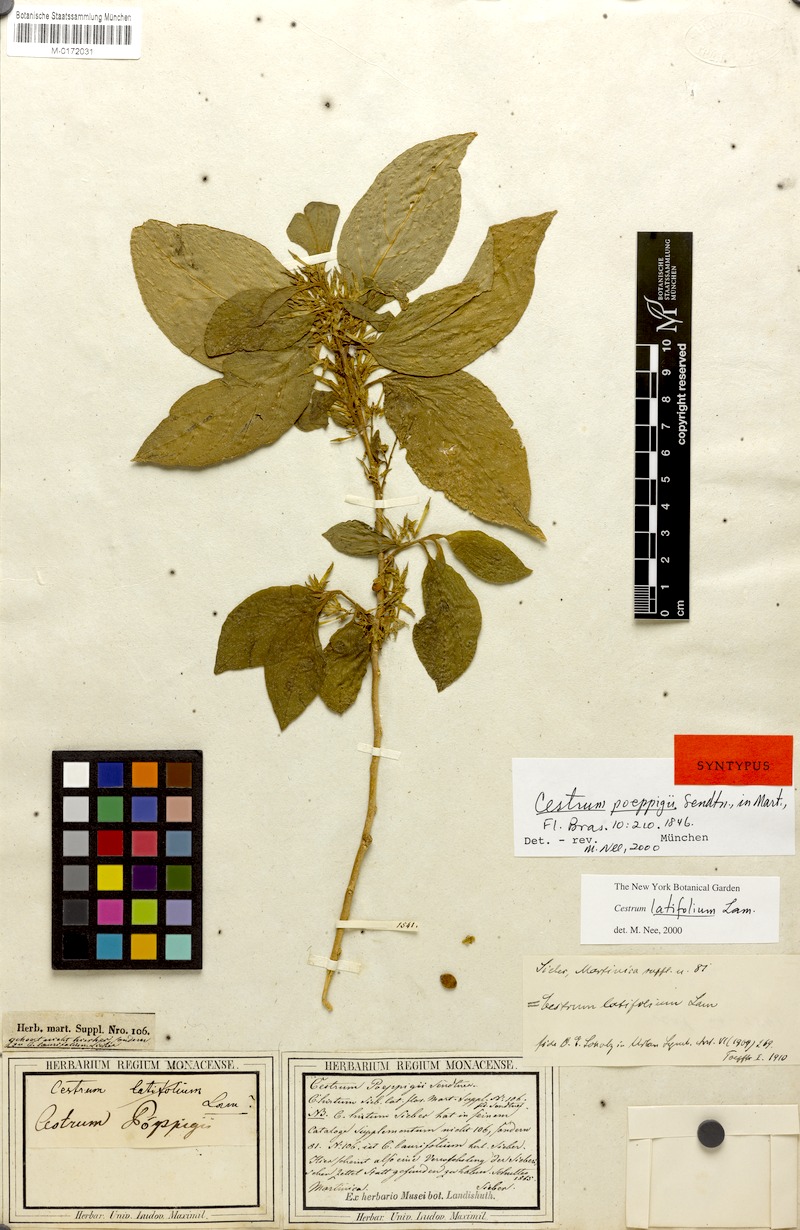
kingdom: Plantae
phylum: Tracheophyta
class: Magnoliopsida
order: Solanales
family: Solanaceae
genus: Cestrum
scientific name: Cestrum latifolium
